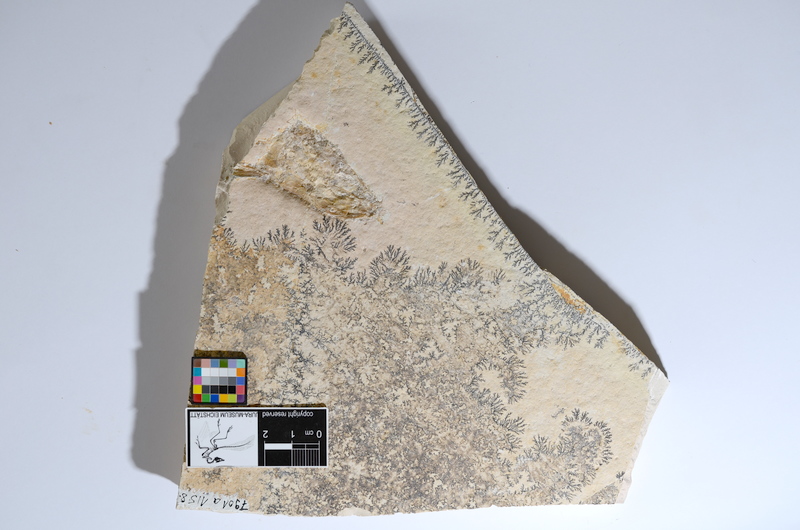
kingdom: Animalia
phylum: Chordata
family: Ascalaboidae
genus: Tharsis
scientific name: Tharsis dubius
